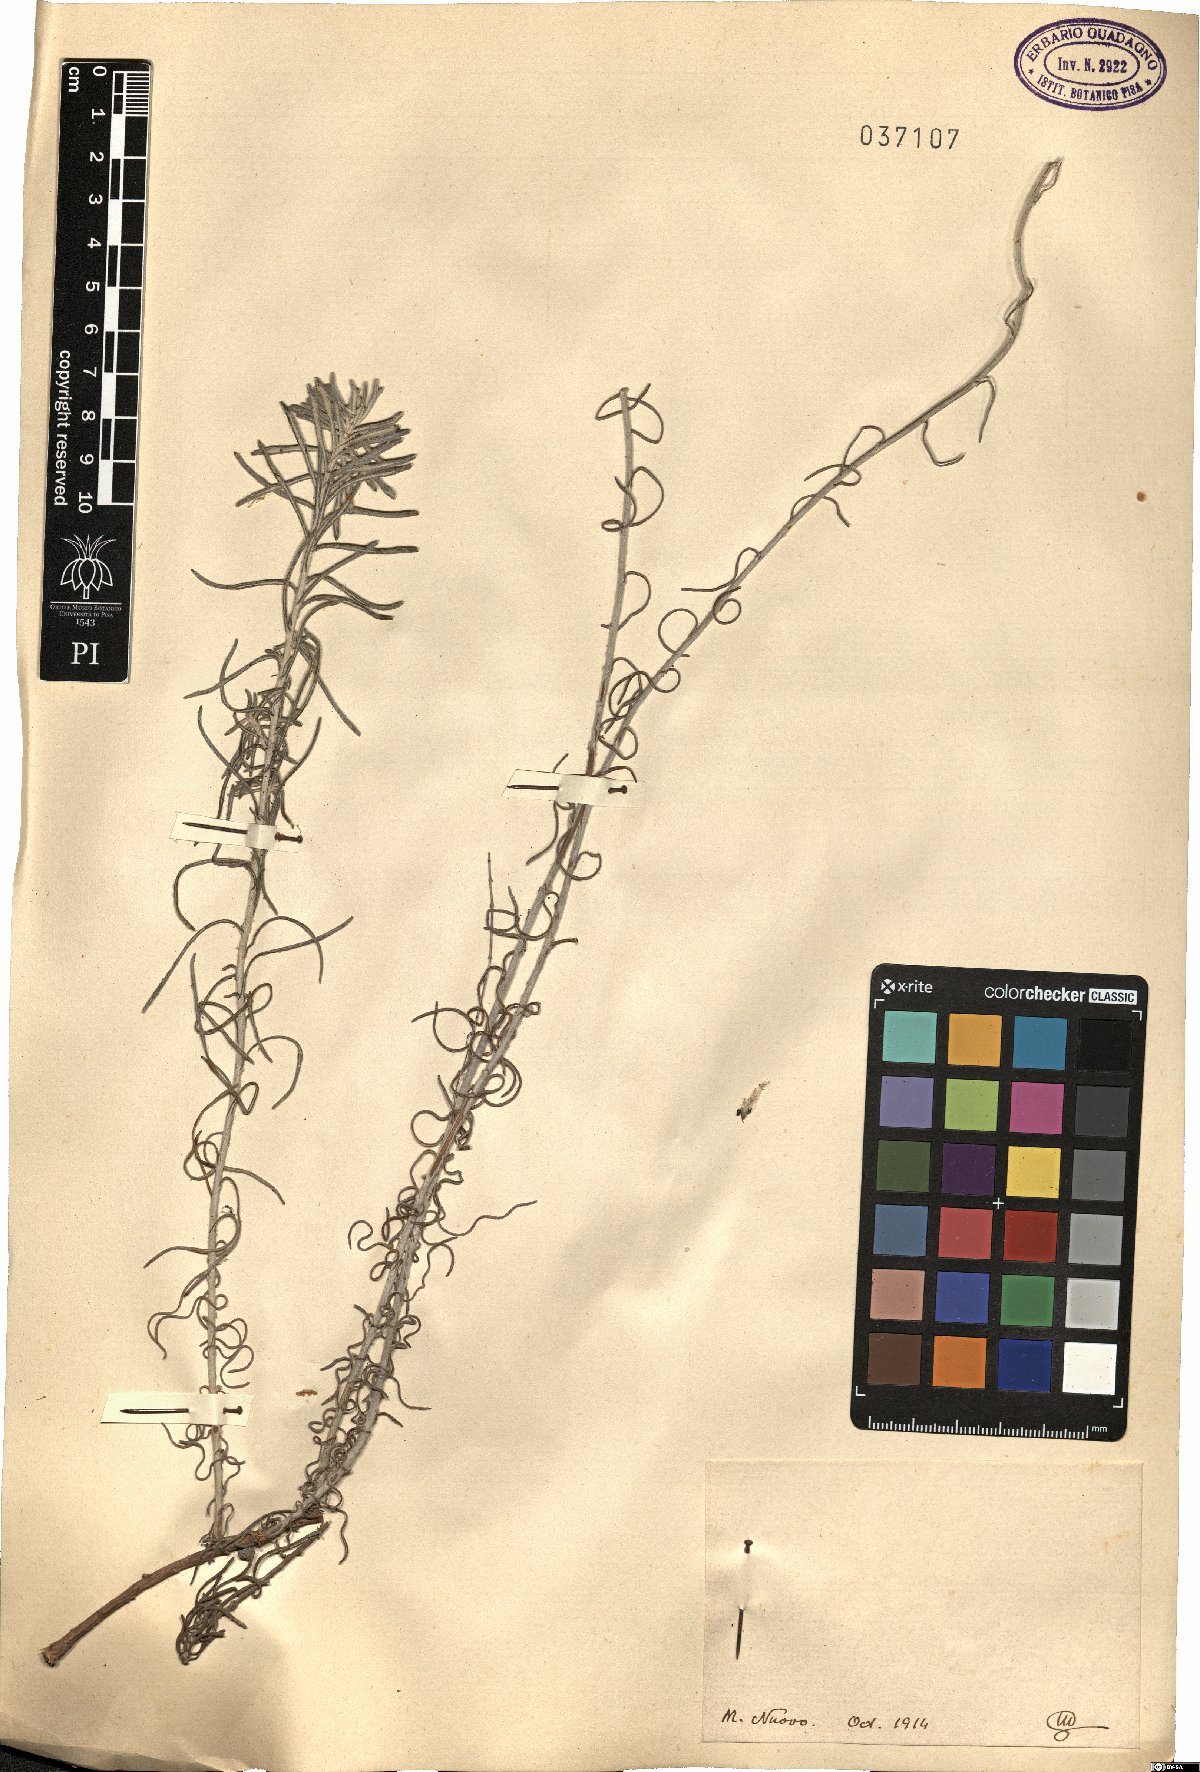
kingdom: Plantae
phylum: Tracheophyta
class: Magnoliopsida
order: Asterales
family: Asteraceae
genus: Helichrysum
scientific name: Helichrysum
